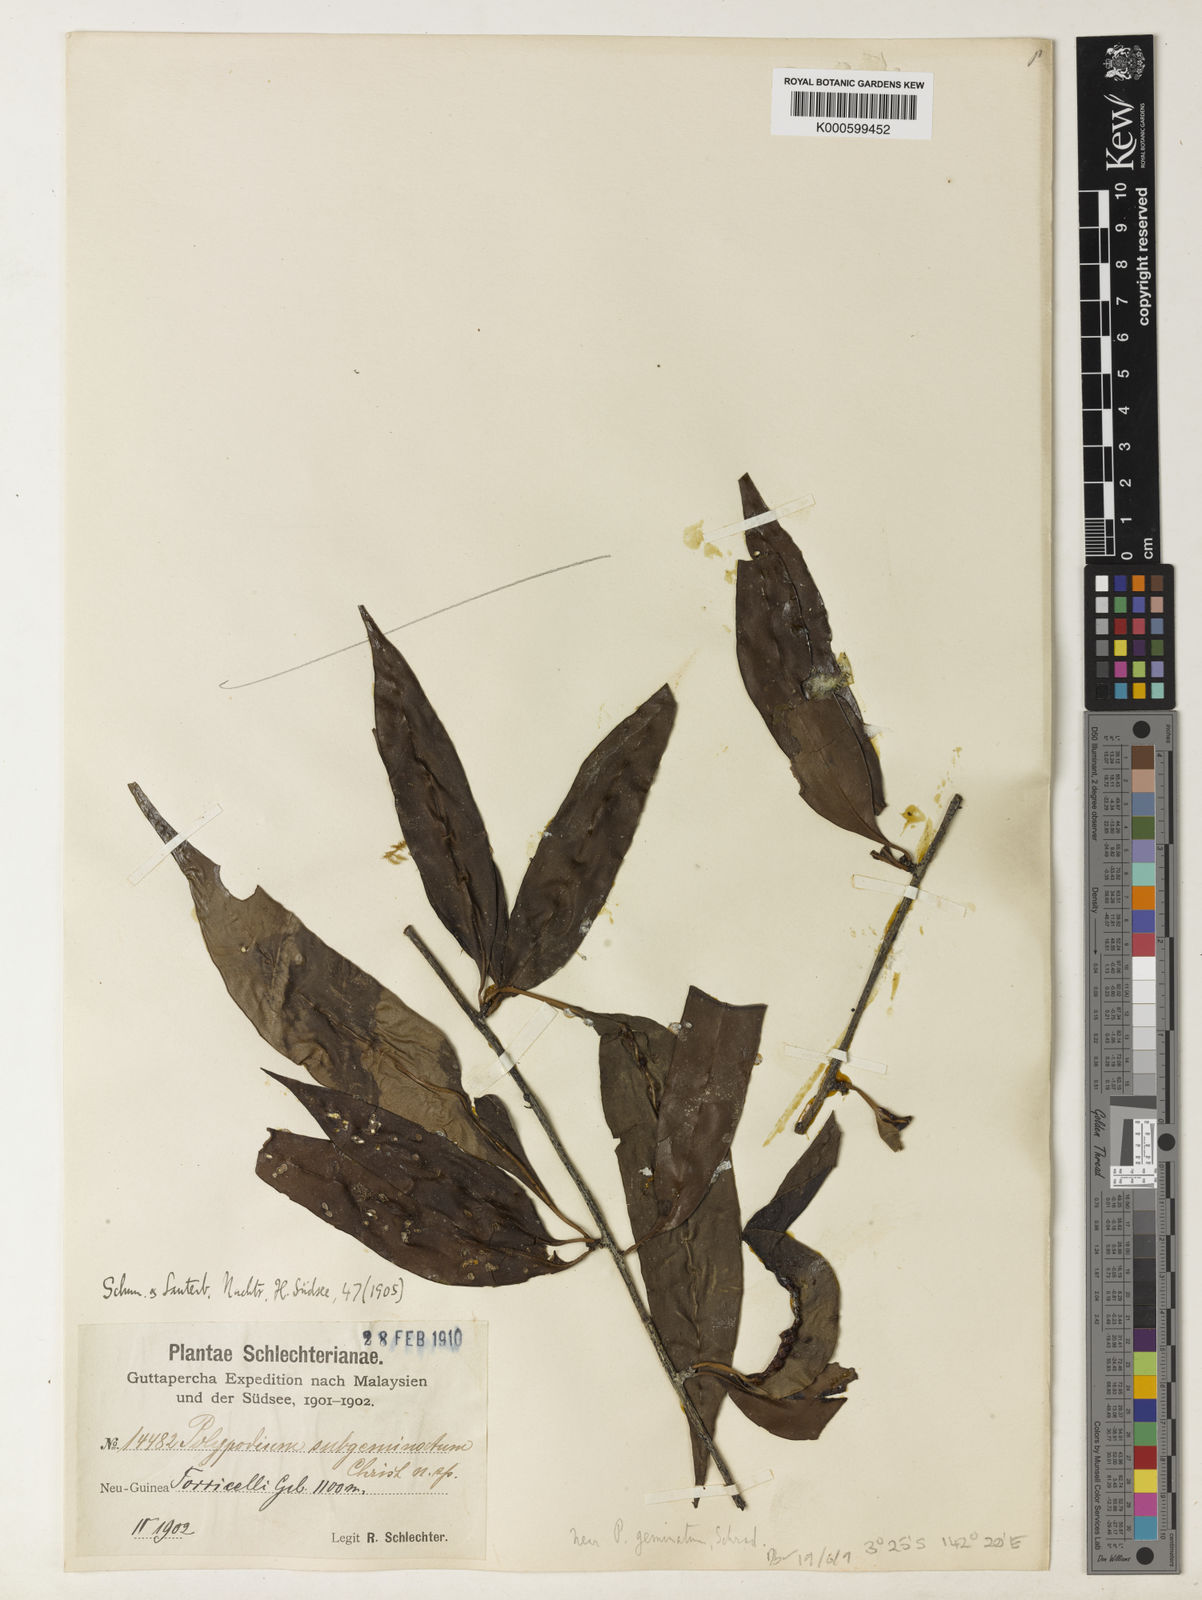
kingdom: Plantae
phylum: Tracheophyta
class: Polypodiopsida
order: Polypodiales
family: Polypodiaceae
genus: Microsorum
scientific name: Microsorum papuanum
